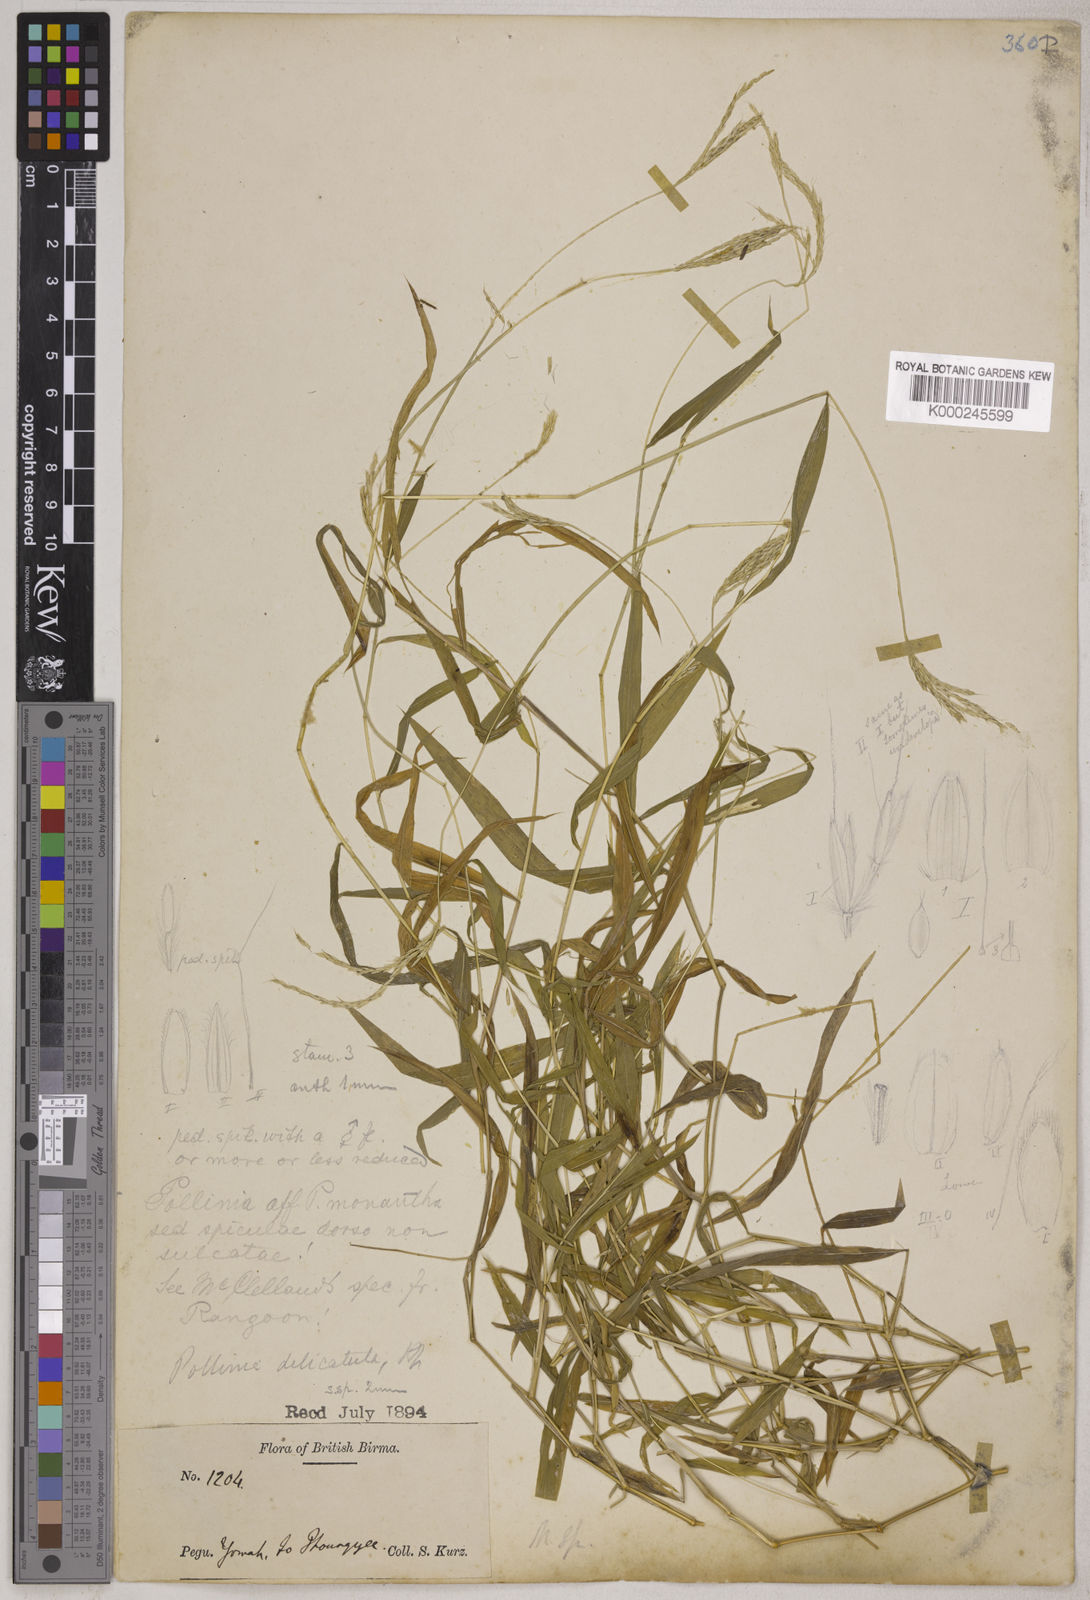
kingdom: Plantae
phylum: Tracheophyta
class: Liliopsida
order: Poales
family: Poaceae
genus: Microstegium
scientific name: Microstegium delicatulum
